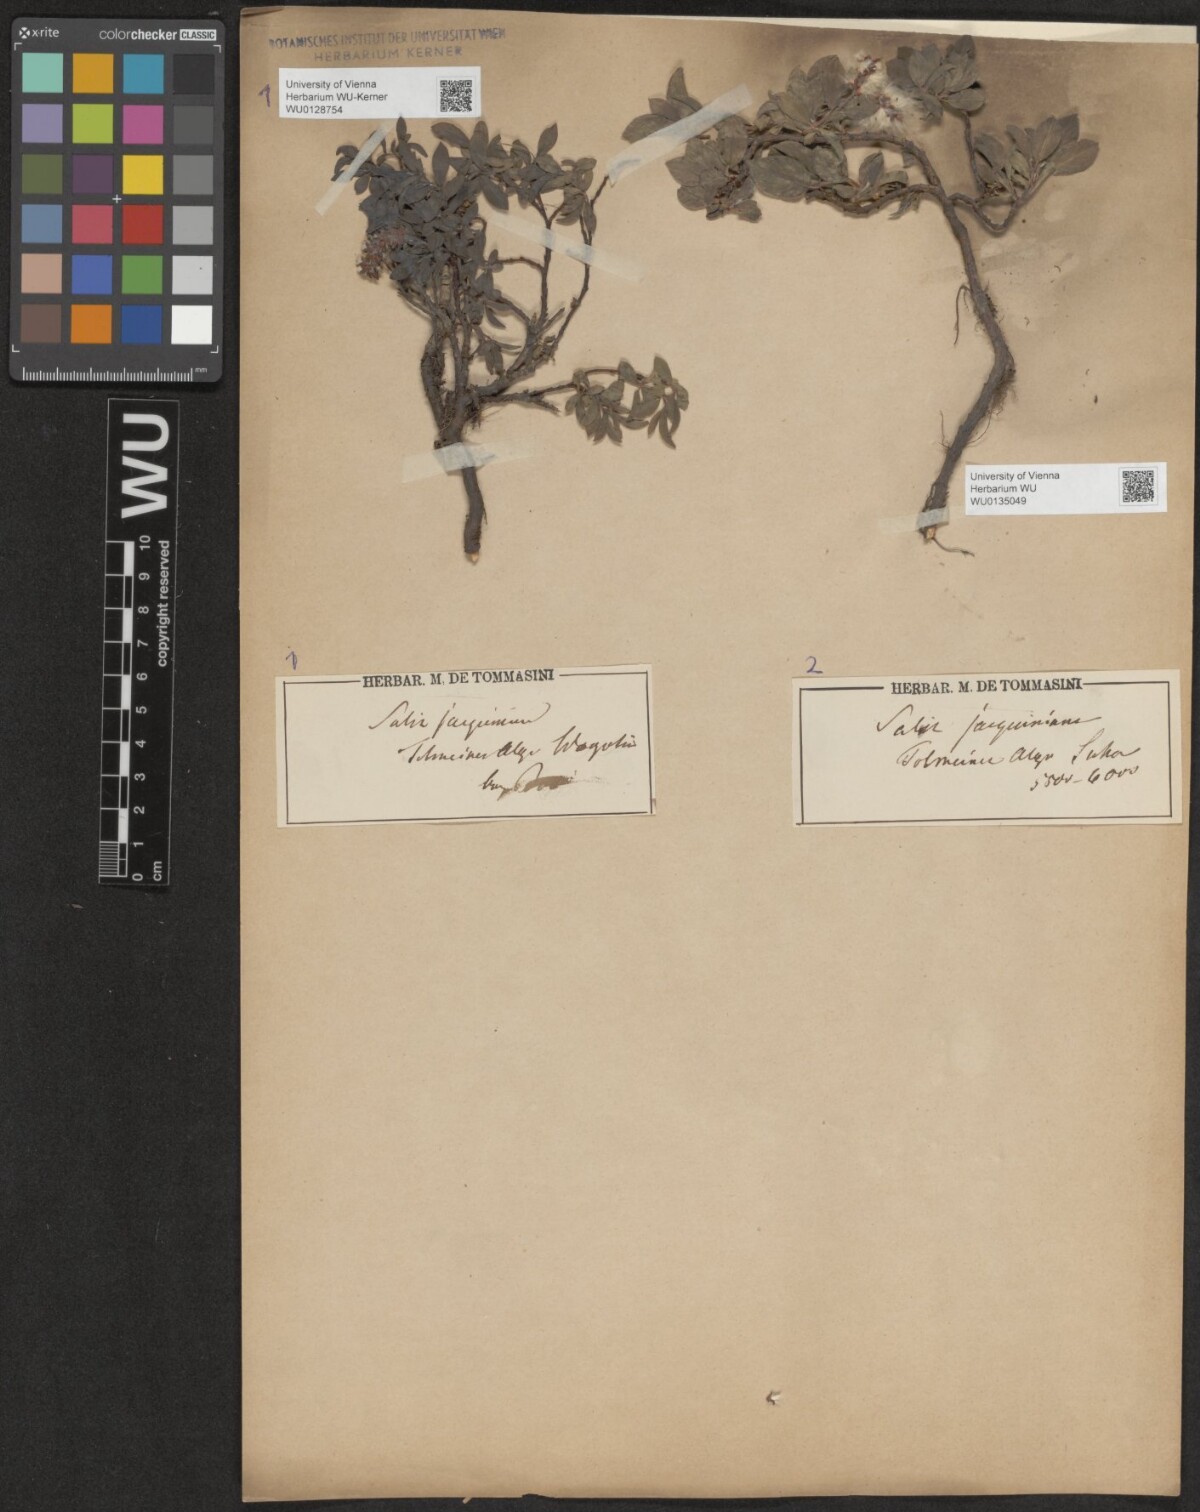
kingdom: Plantae
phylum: Tracheophyta
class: Magnoliopsida
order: Malpighiales
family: Salicaceae
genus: Salix
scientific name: Salix alpina
